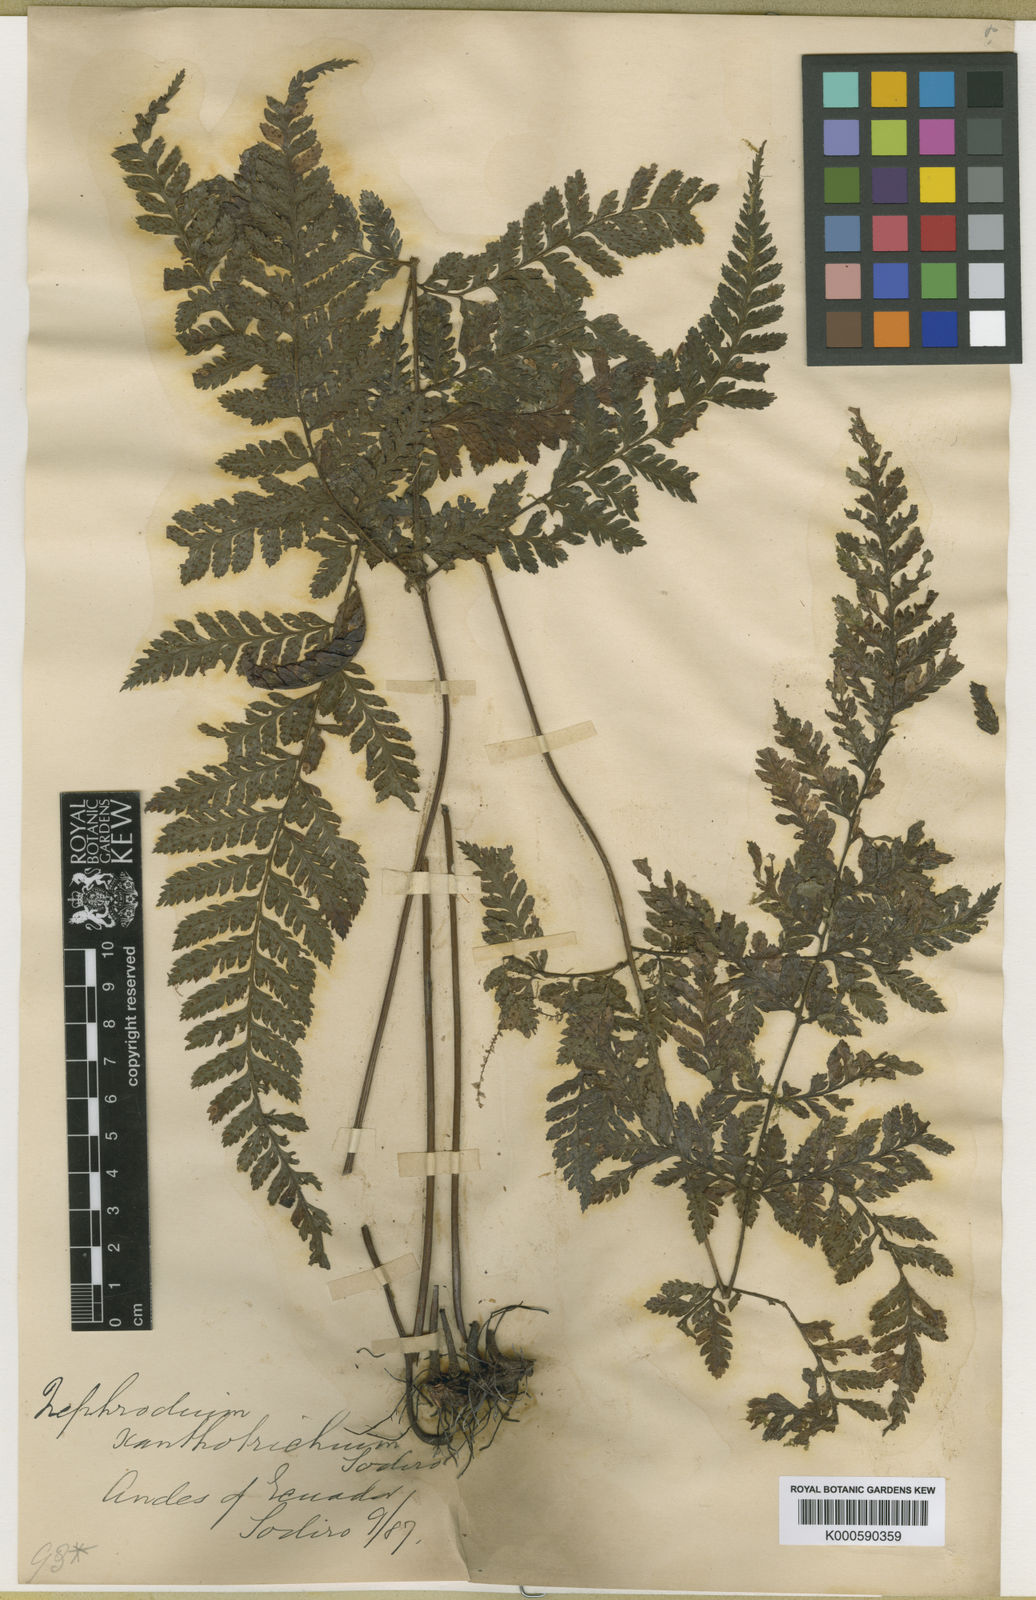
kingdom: Plantae
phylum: Tracheophyta
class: Polypodiopsida
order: Polypodiales
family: Dryopteridaceae
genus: Parapolystichum
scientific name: Parapolystichum excultum
